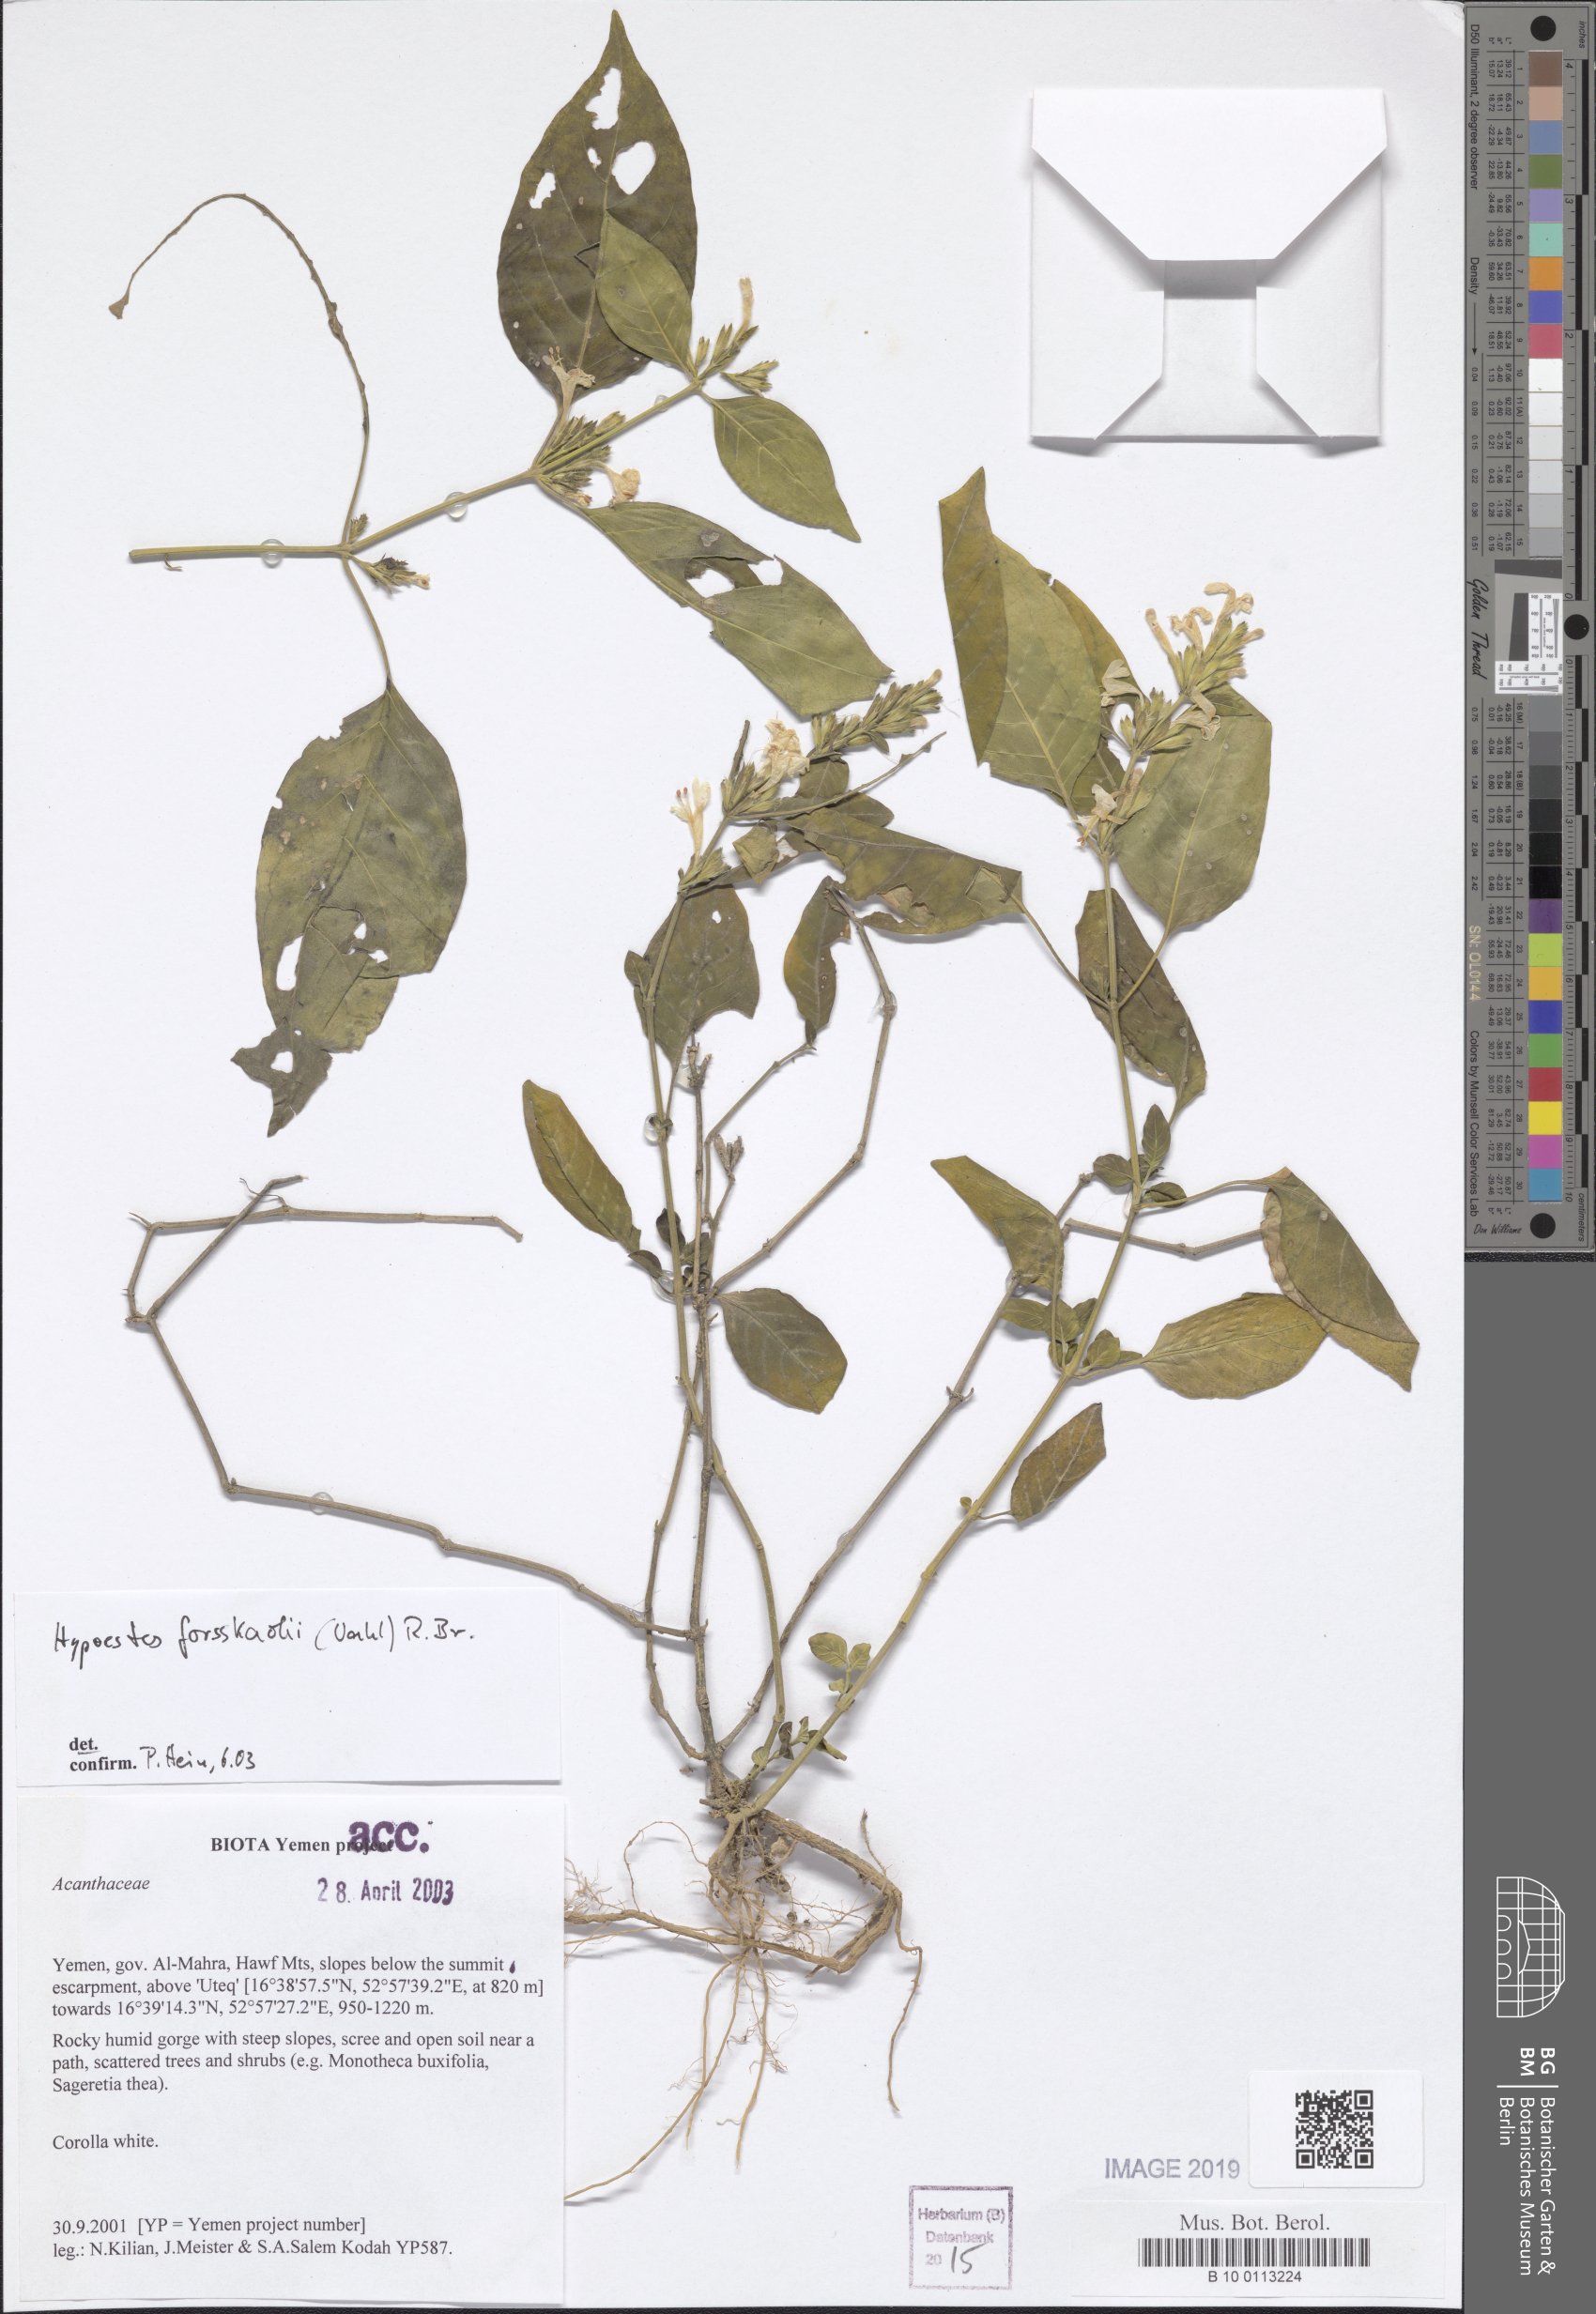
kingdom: Plantae
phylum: Tracheophyta
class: Magnoliopsida
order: Lamiales
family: Acanthaceae
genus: Hypoestes
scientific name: Hypoestes forskaolii
